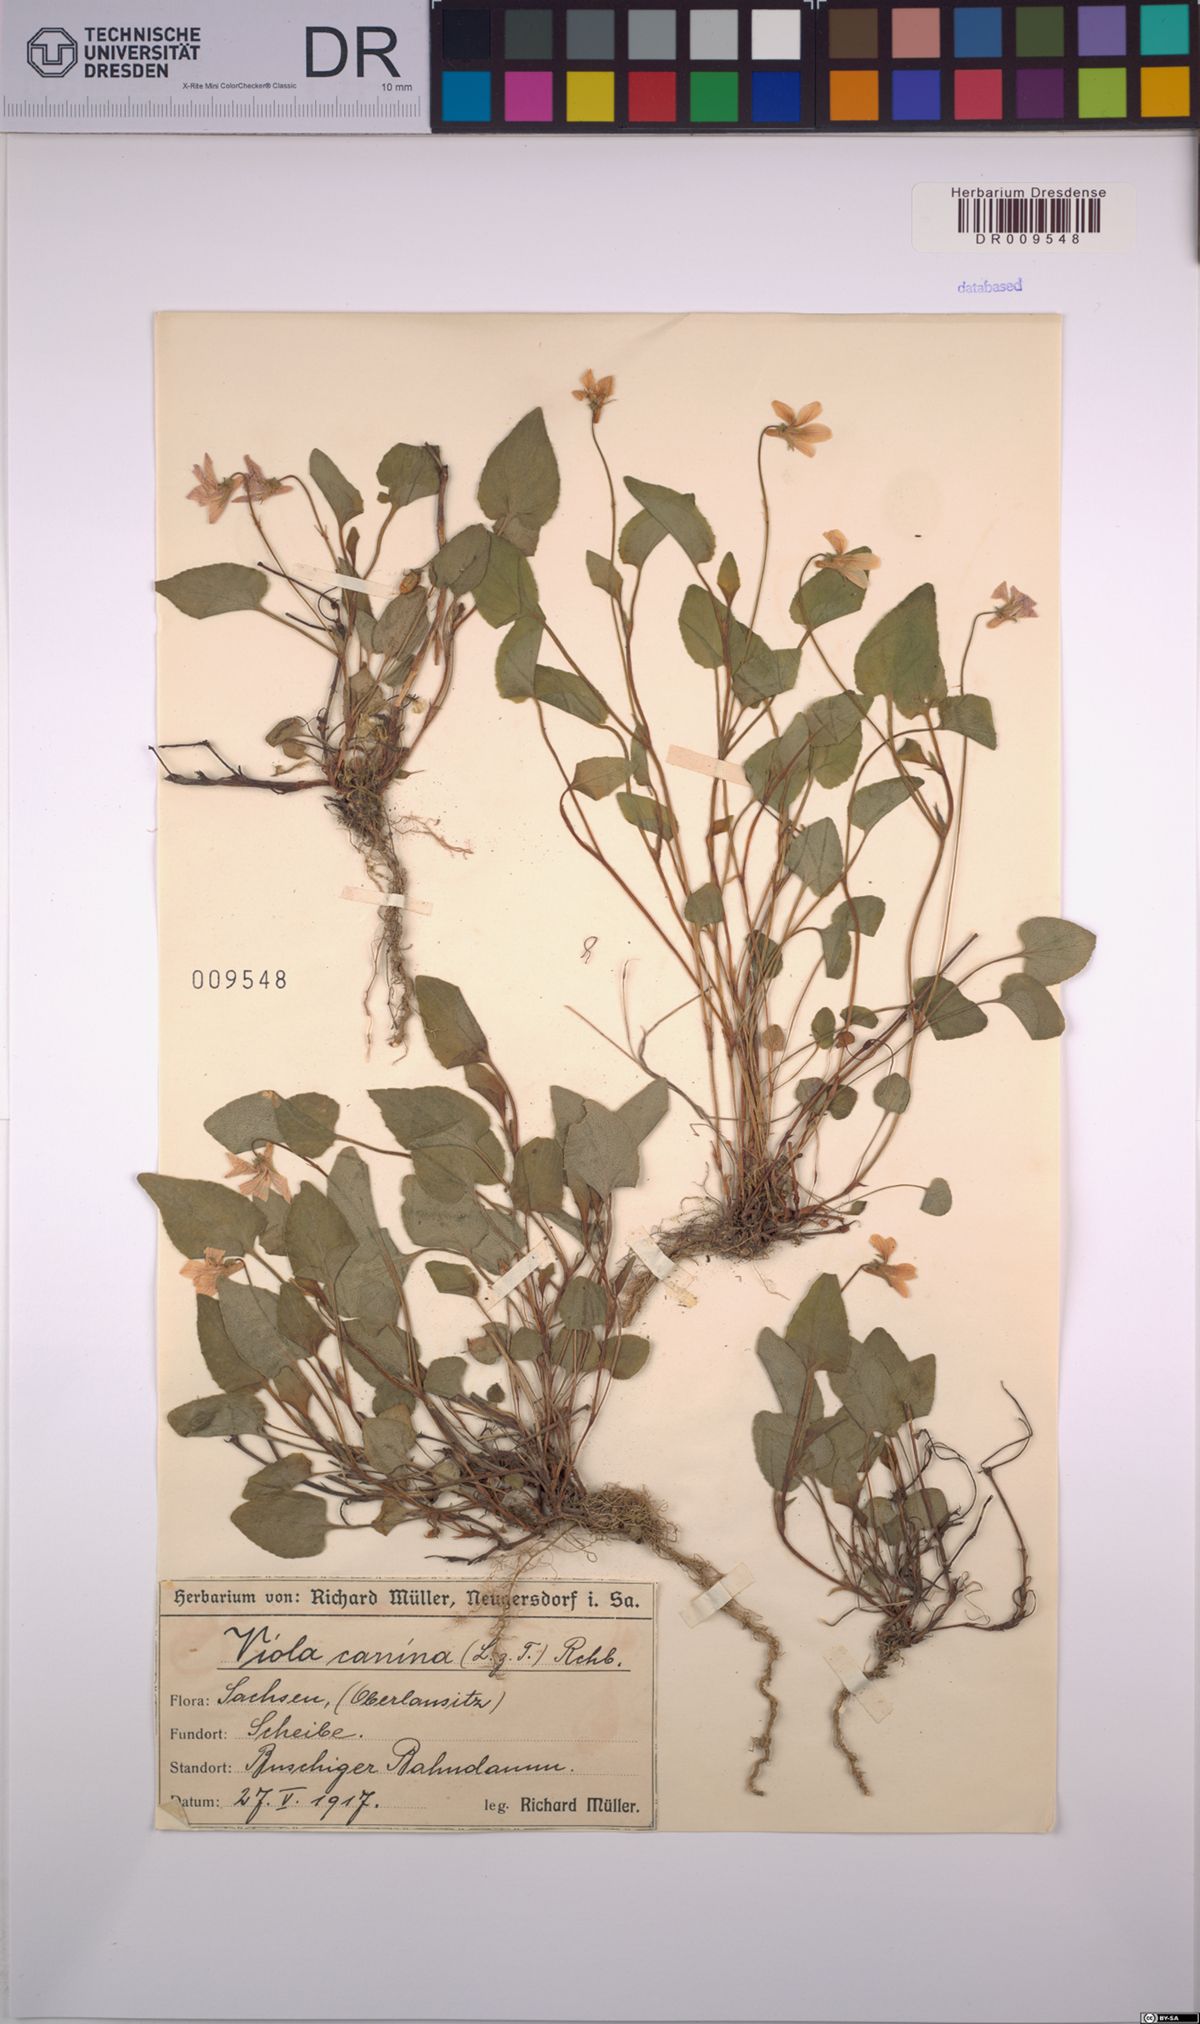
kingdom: Plantae
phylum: Tracheophyta
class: Magnoliopsida
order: Malpighiales
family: Violaceae
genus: Viola
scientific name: Viola canina
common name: Heath dog-violet
